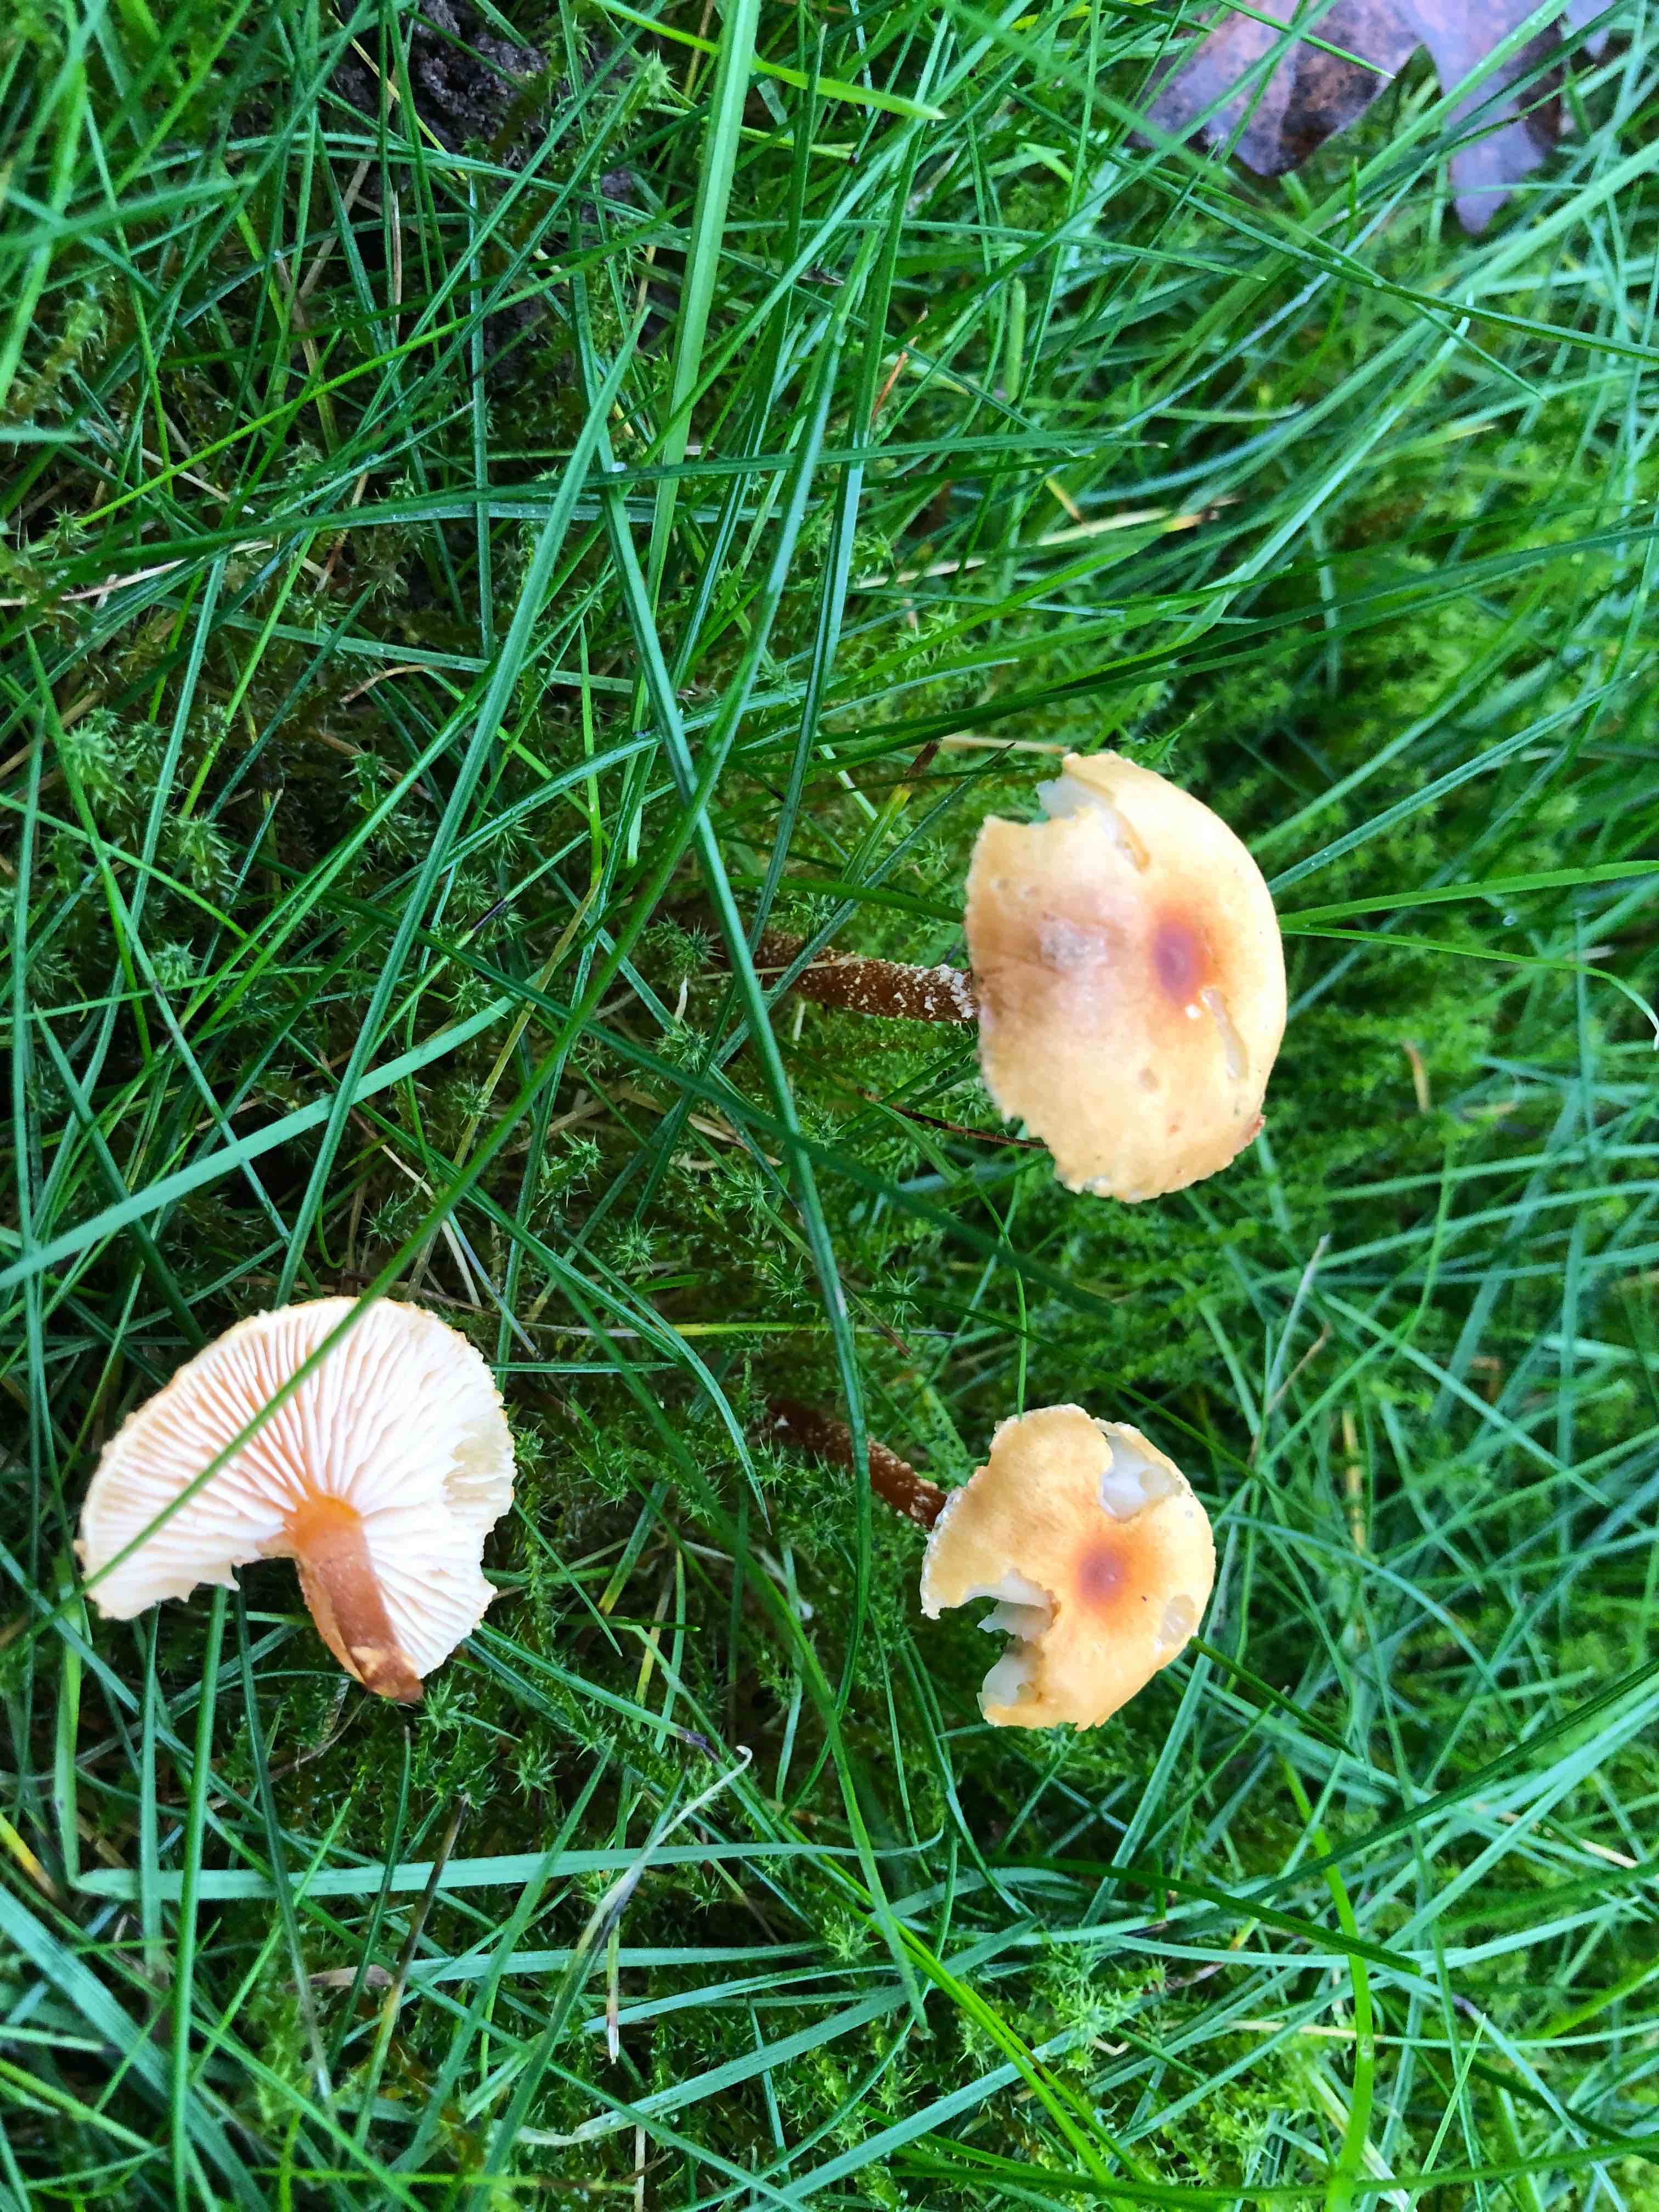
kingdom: Fungi
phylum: Basidiomycota
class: Agaricomycetes
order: Agaricales
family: Tricholomataceae
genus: Cystoderma
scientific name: Cystoderma amianthinum
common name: okkergul grynhat
